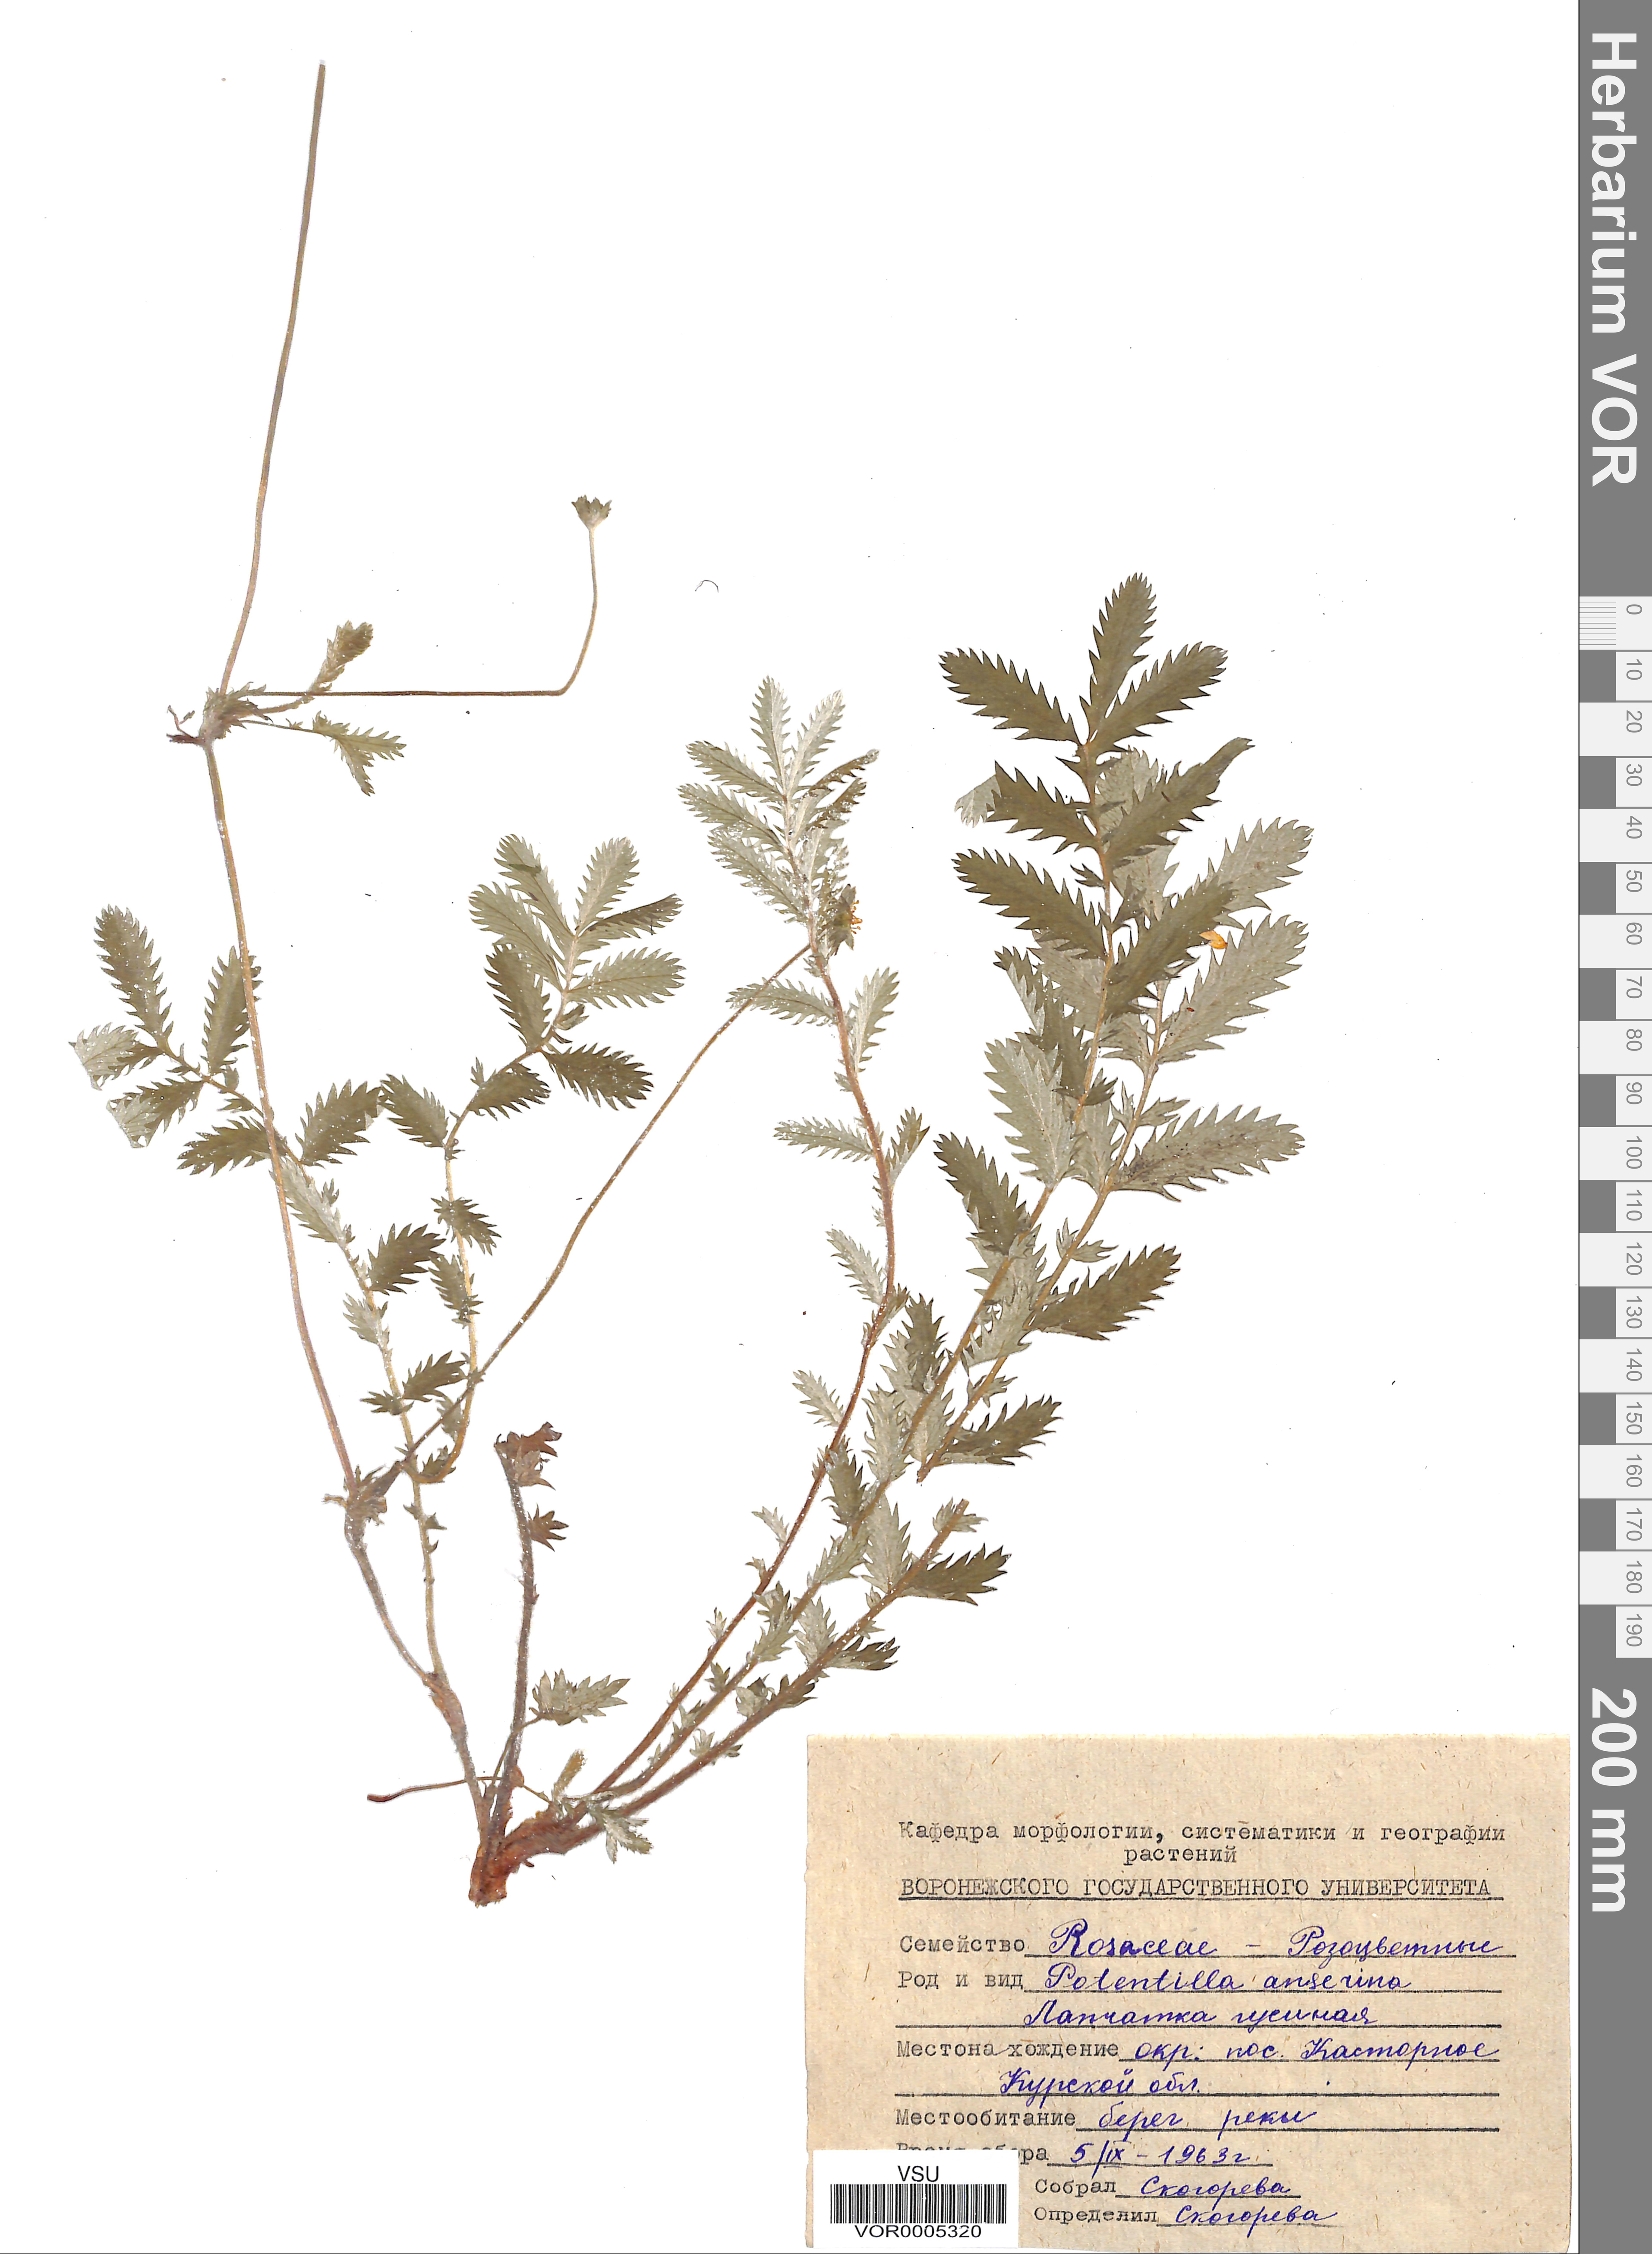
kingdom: Plantae
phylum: Tracheophyta
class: Magnoliopsida
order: Rosales
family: Rosaceae
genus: Argentina
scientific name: Argentina anserina
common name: Common silverweed
